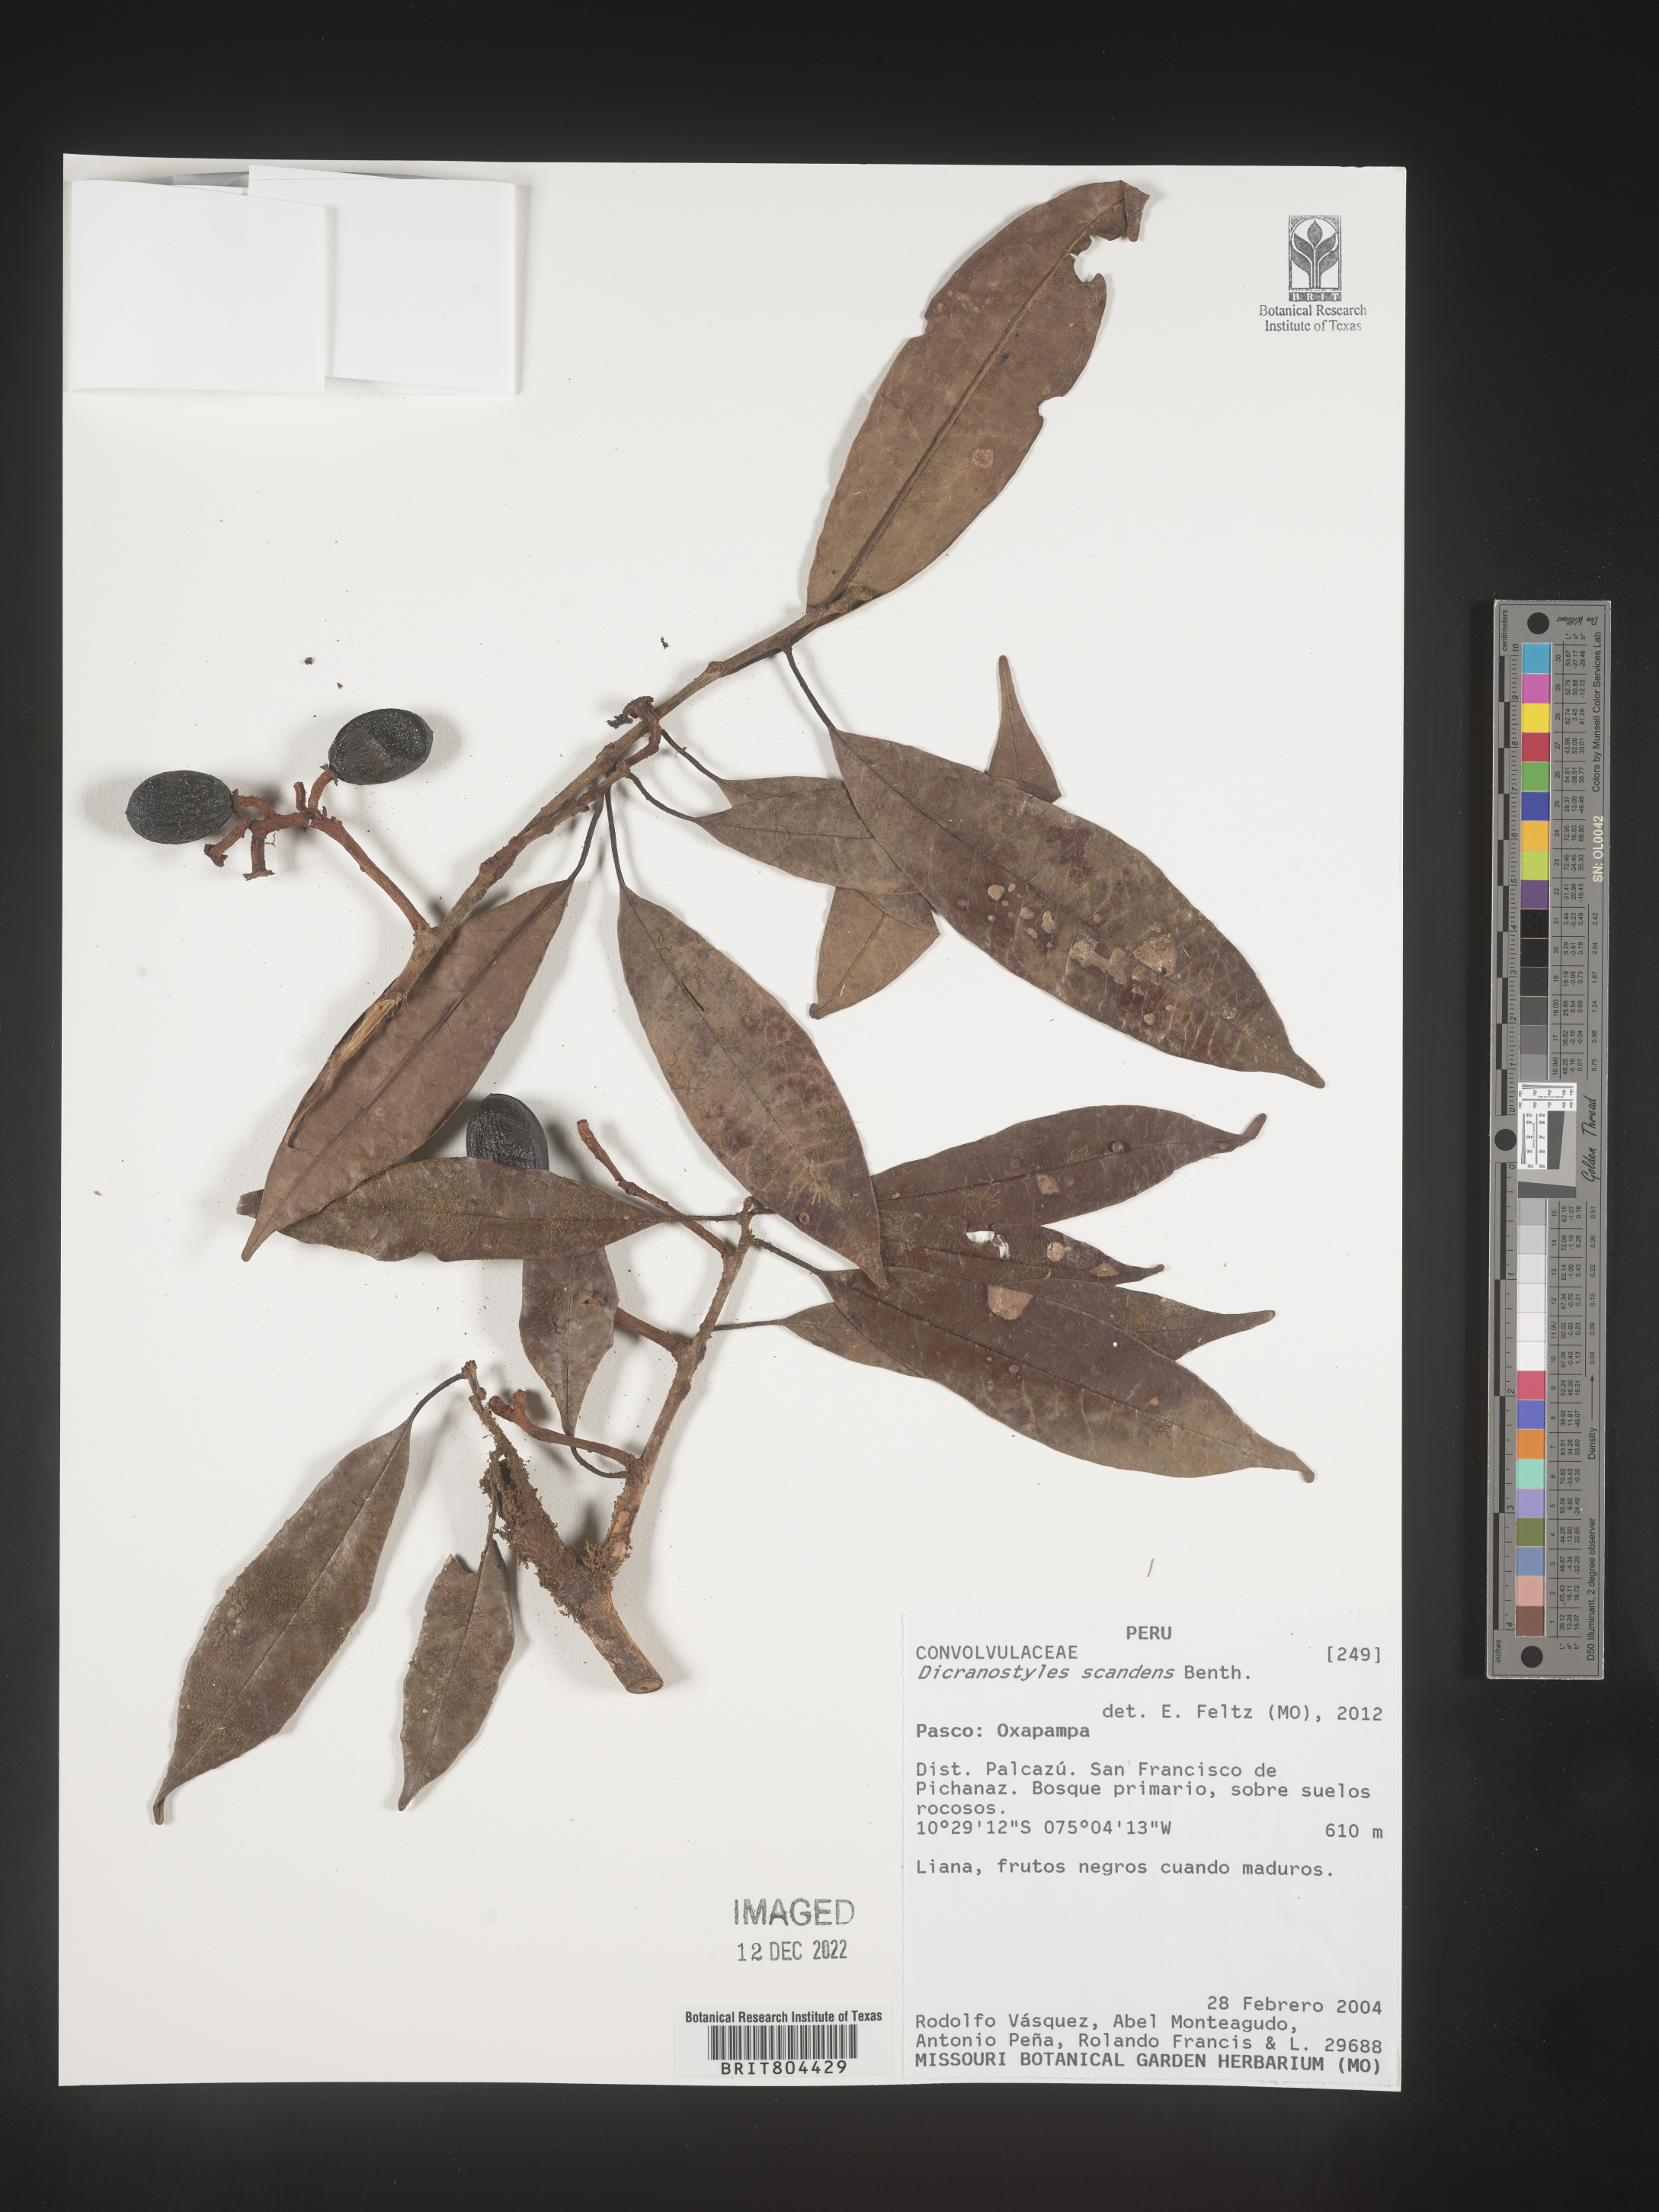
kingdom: Plantae
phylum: Tracheophyta
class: Magnoliopsida
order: Solanales
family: Convolvulaceae
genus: Dicranostyles
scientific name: Dicranostyles
